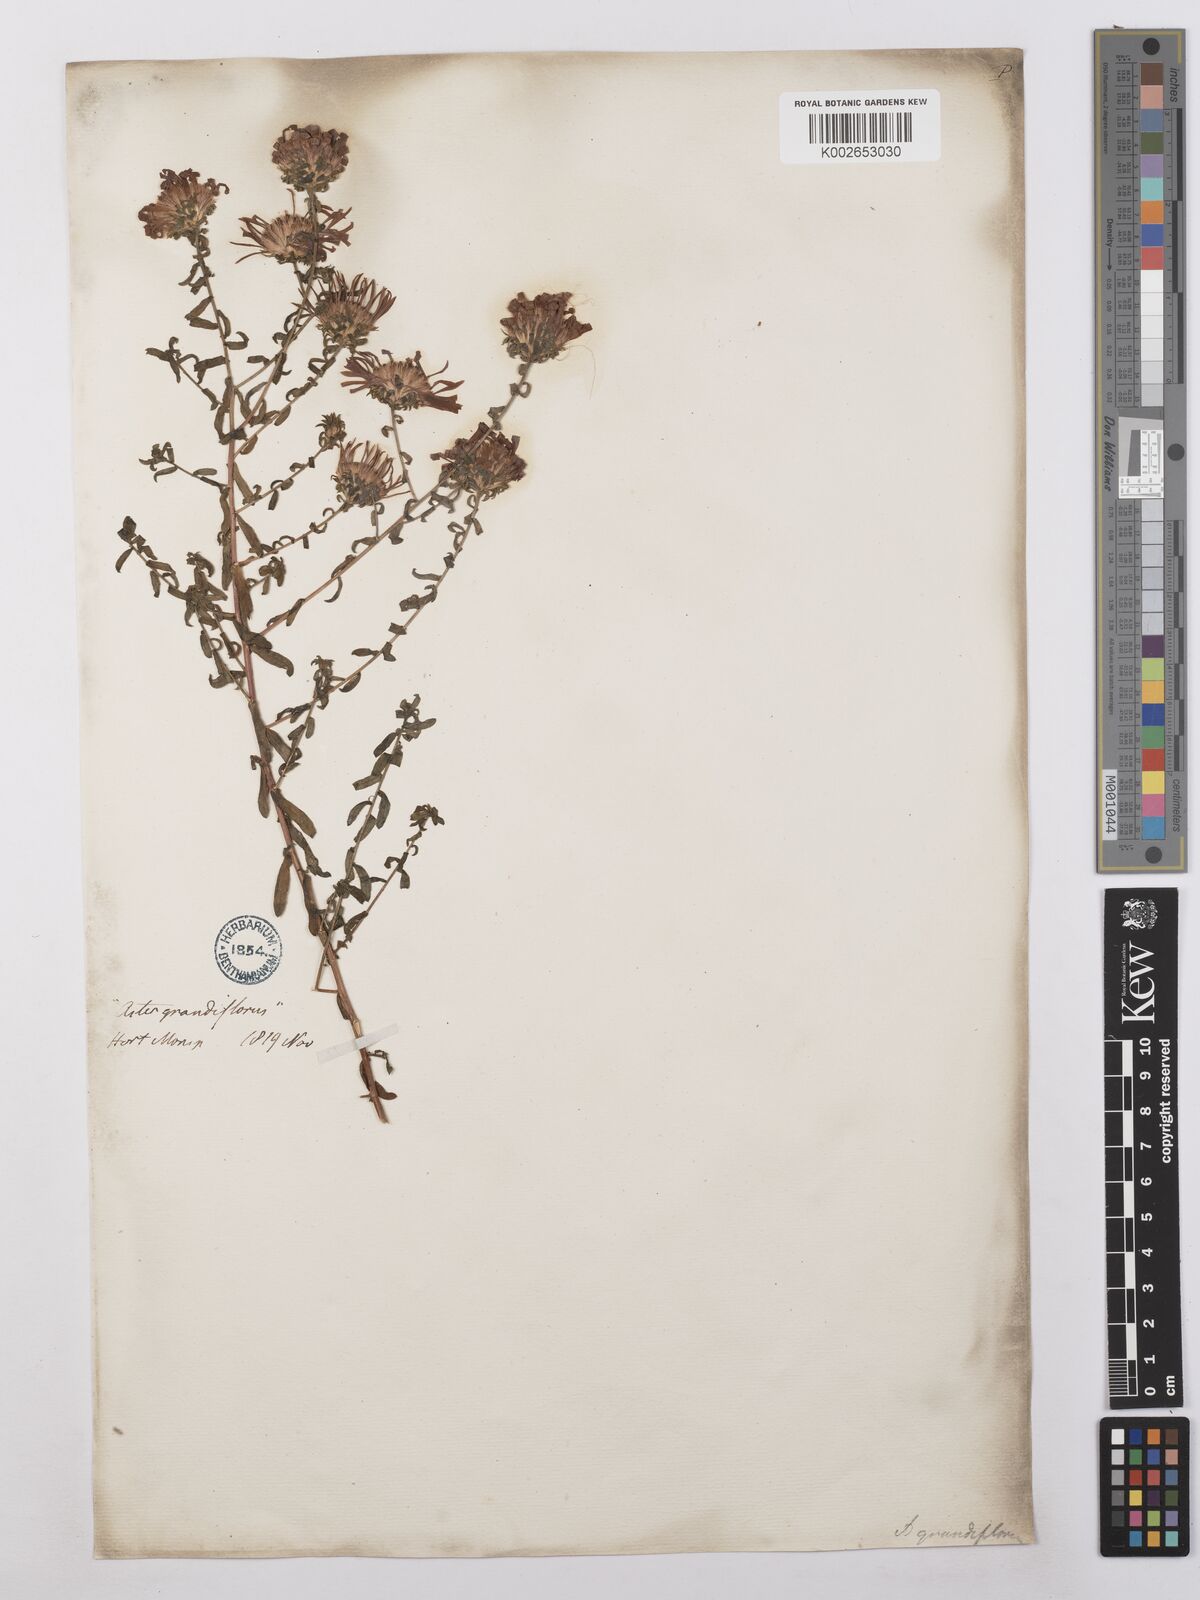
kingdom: Plantae
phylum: Tracheophyta
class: Magnoliopsida
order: Asterales
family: Asteraceae
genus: Symphyotrichum
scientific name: Symphyotrichum grandiflorum
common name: Big-head aster
